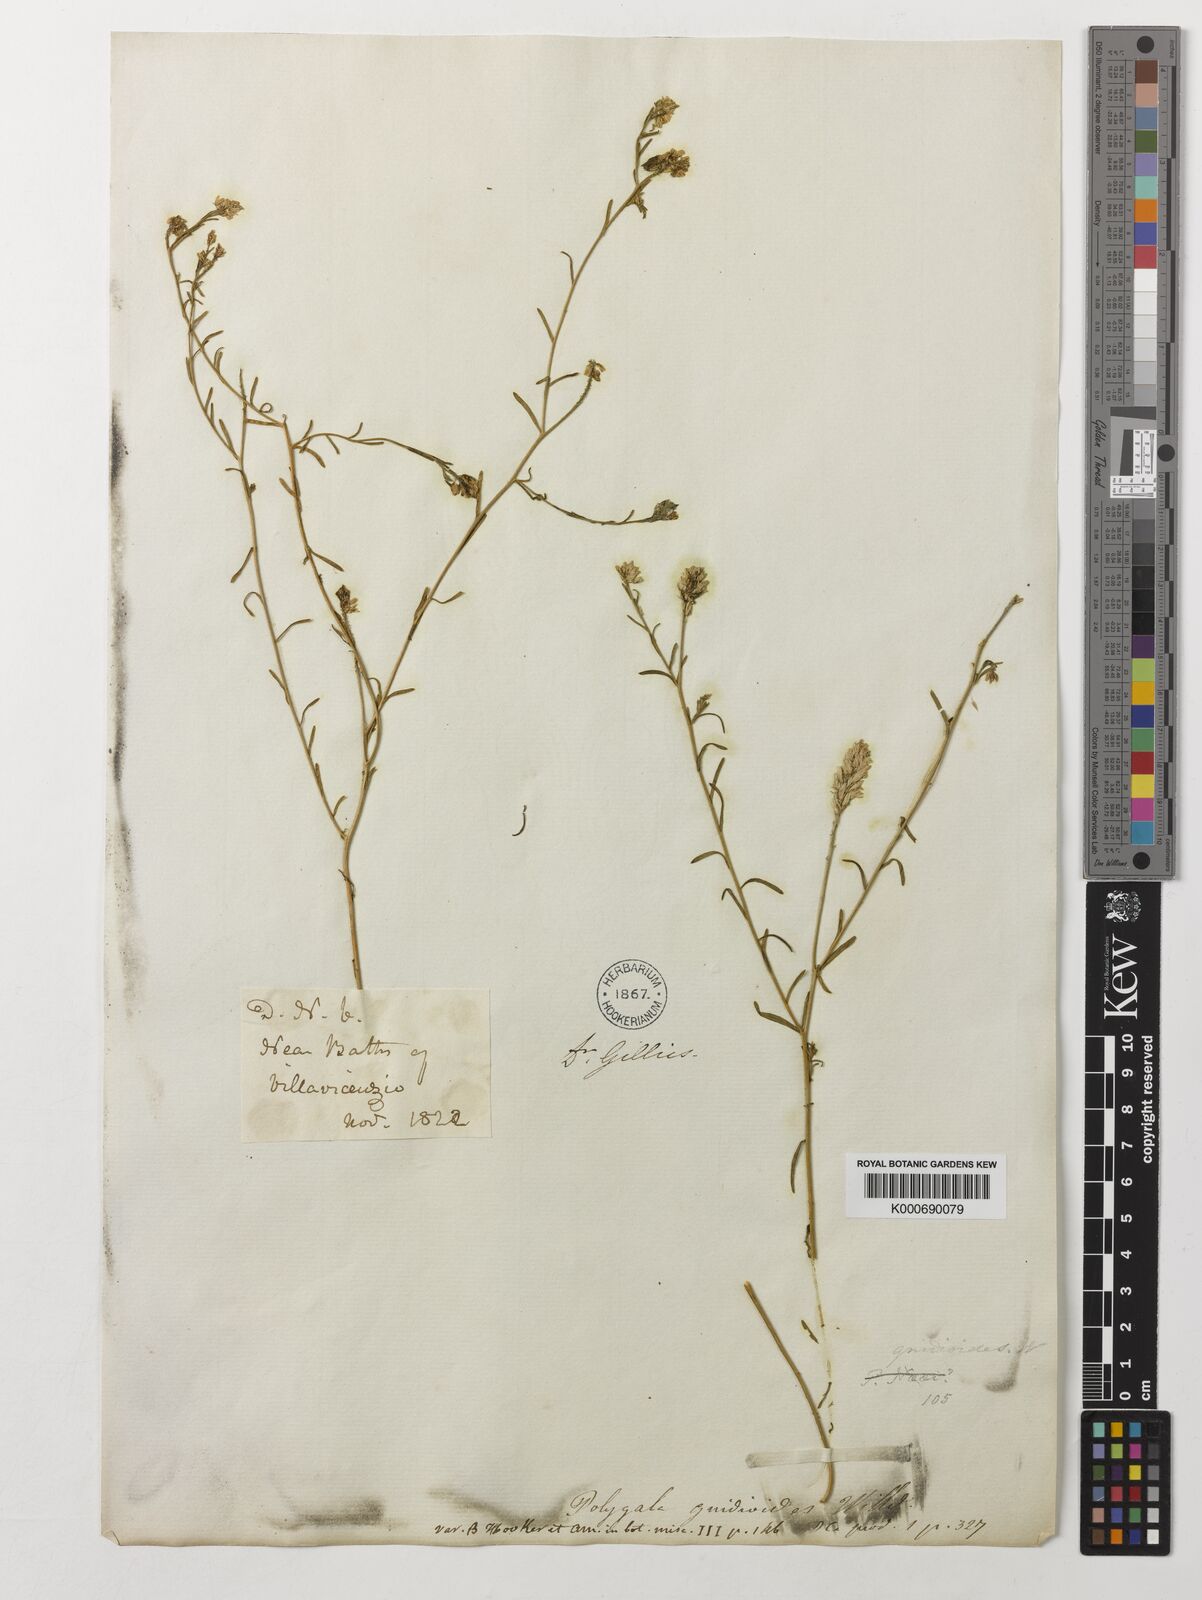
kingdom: Plantae
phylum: Tracheophyta
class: Magnoliopsida
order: Fabales
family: Polygalaceae
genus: Polygala
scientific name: Polygala gnidioides
